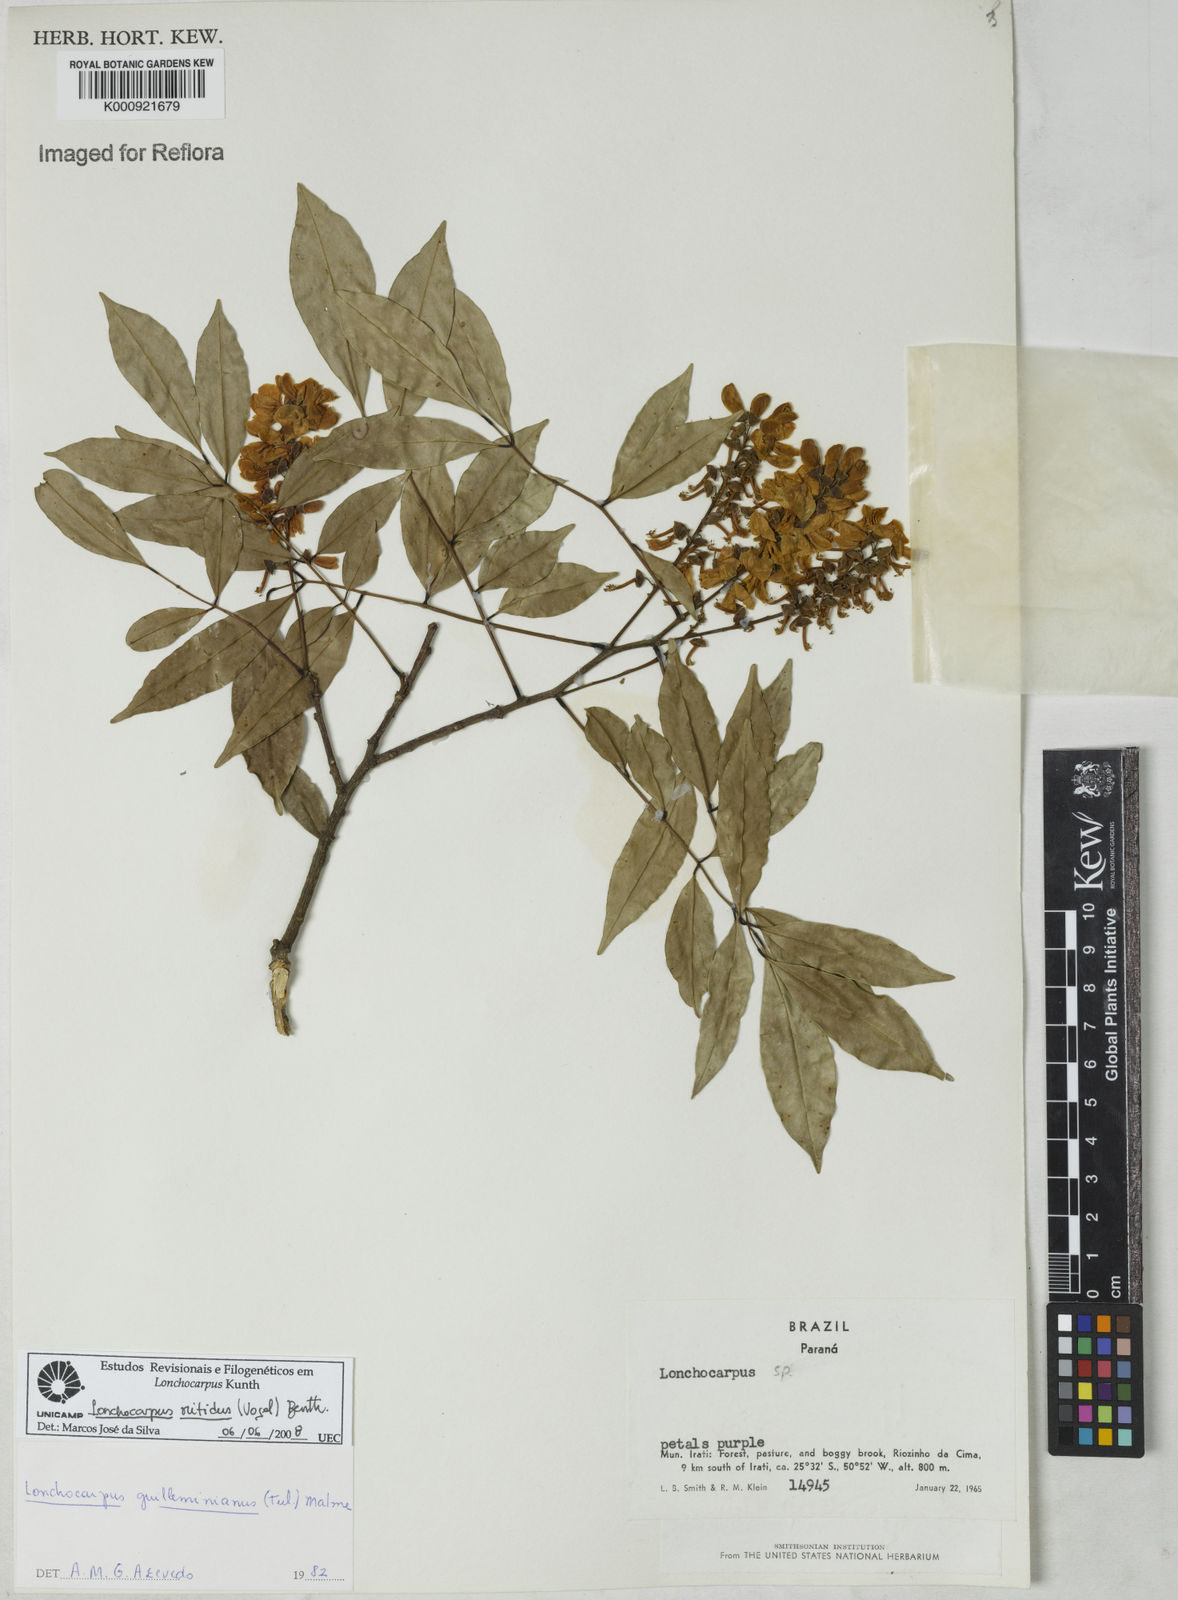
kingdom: Plantae
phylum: Tracheophyta
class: Magnoliopsida
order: Fabales
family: Fabaceae
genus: Lonchocarpus
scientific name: Lonchocarpus nitidus
